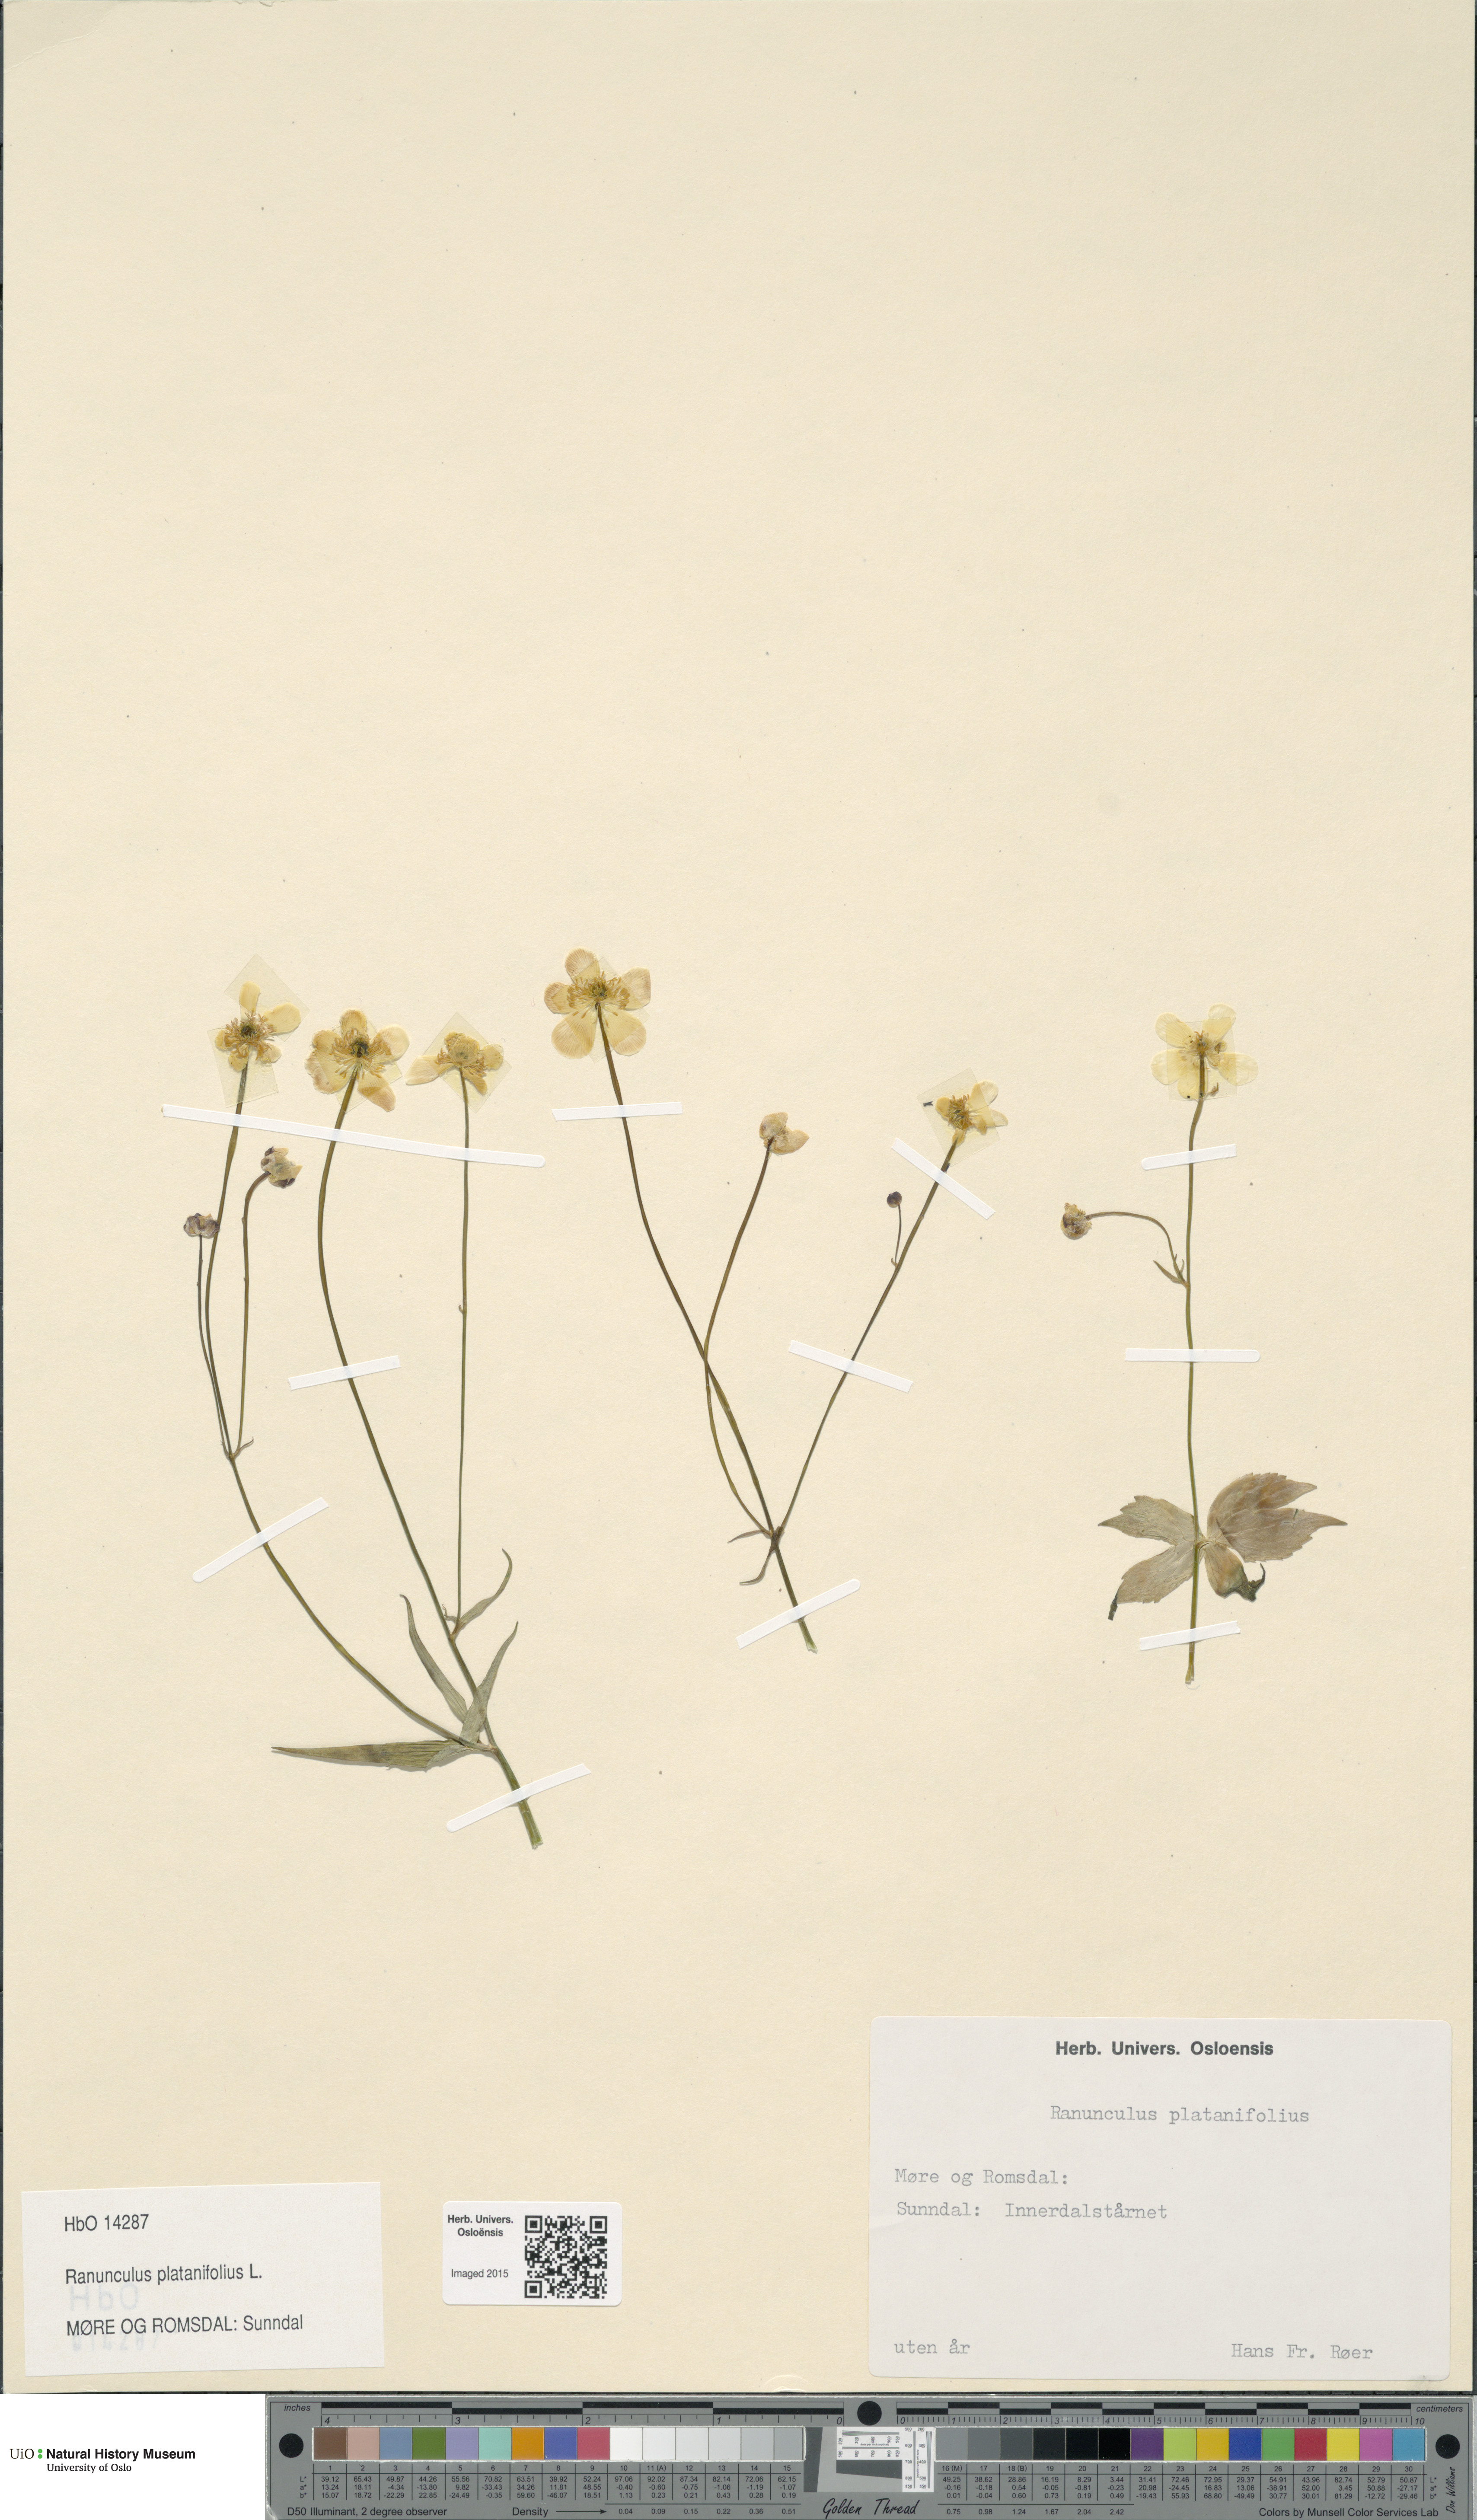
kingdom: Plantae
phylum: Tracheophyta
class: Magnoliopsida
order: Ranunculales
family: Ranunculaceae
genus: Ranunculus
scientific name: Ranunculus platanifolius
